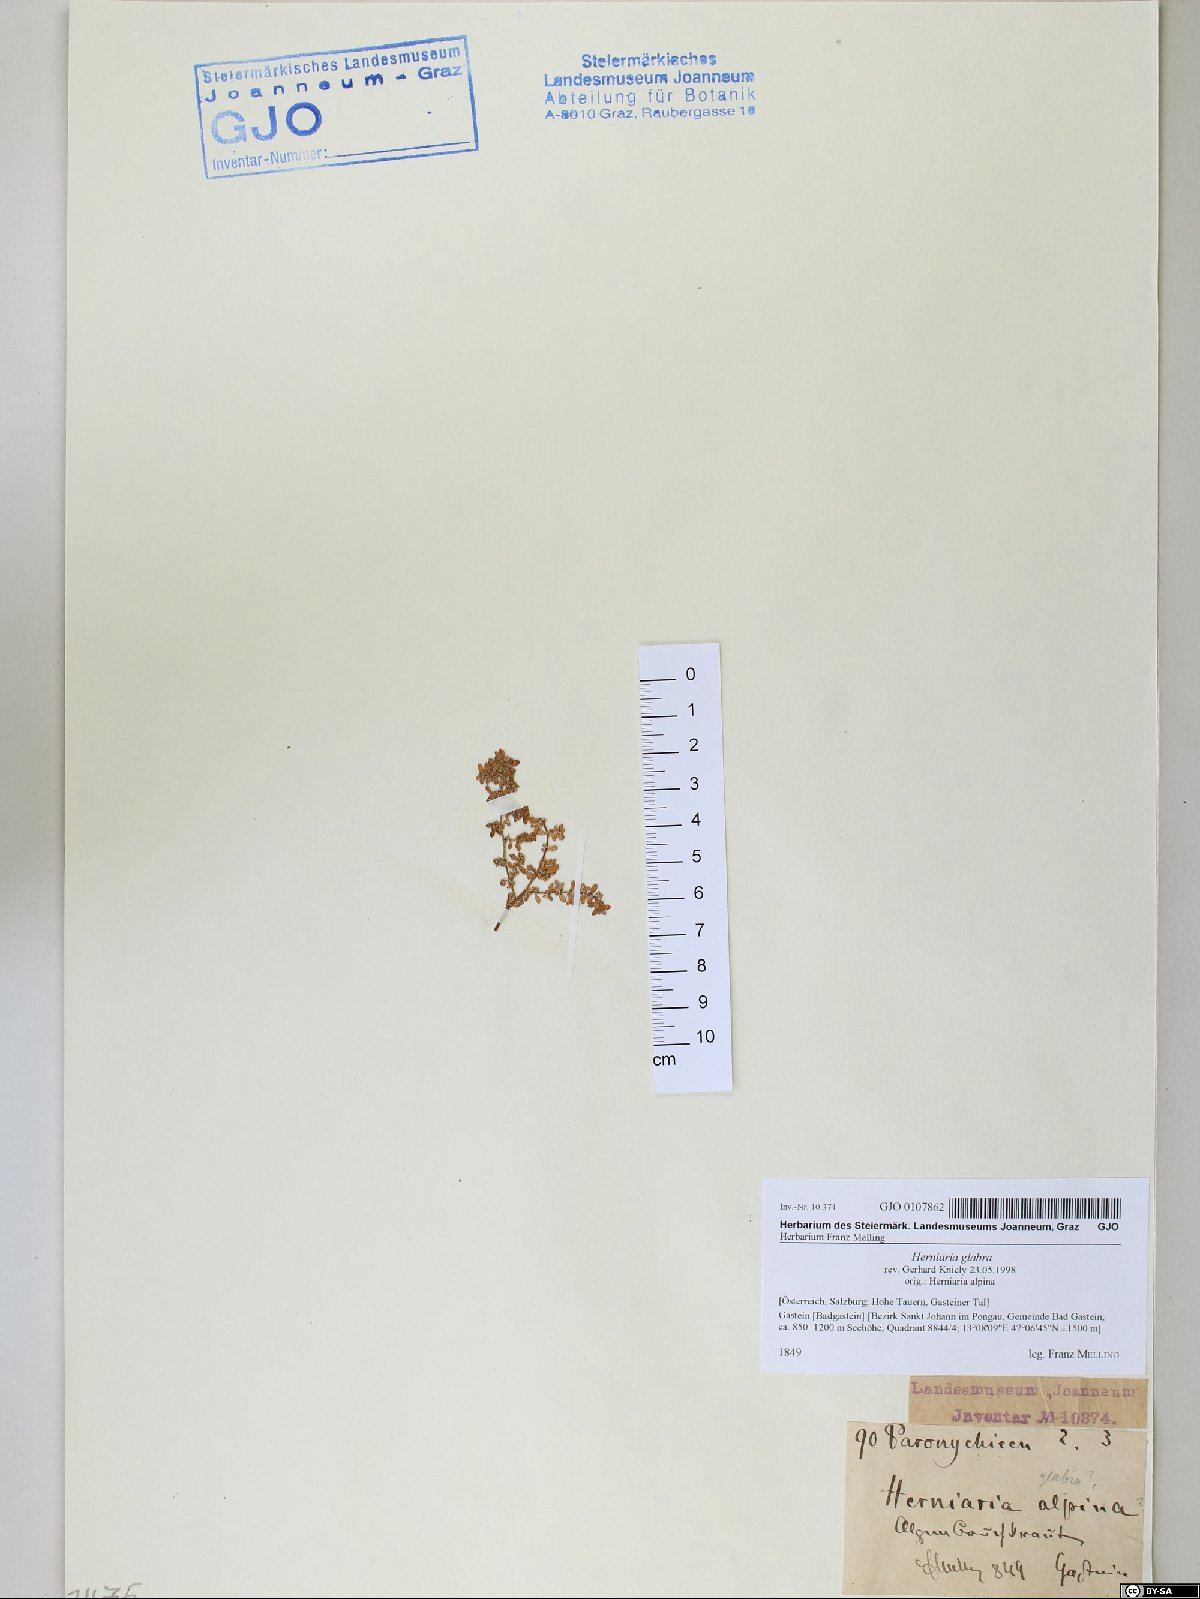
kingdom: Plantae
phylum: Tracheophyta
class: Magnoliopsida
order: Caryophyllales
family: Caryophyllaceae
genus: Herniaria
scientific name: Herniaria glabra
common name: Smooth rupturewort
